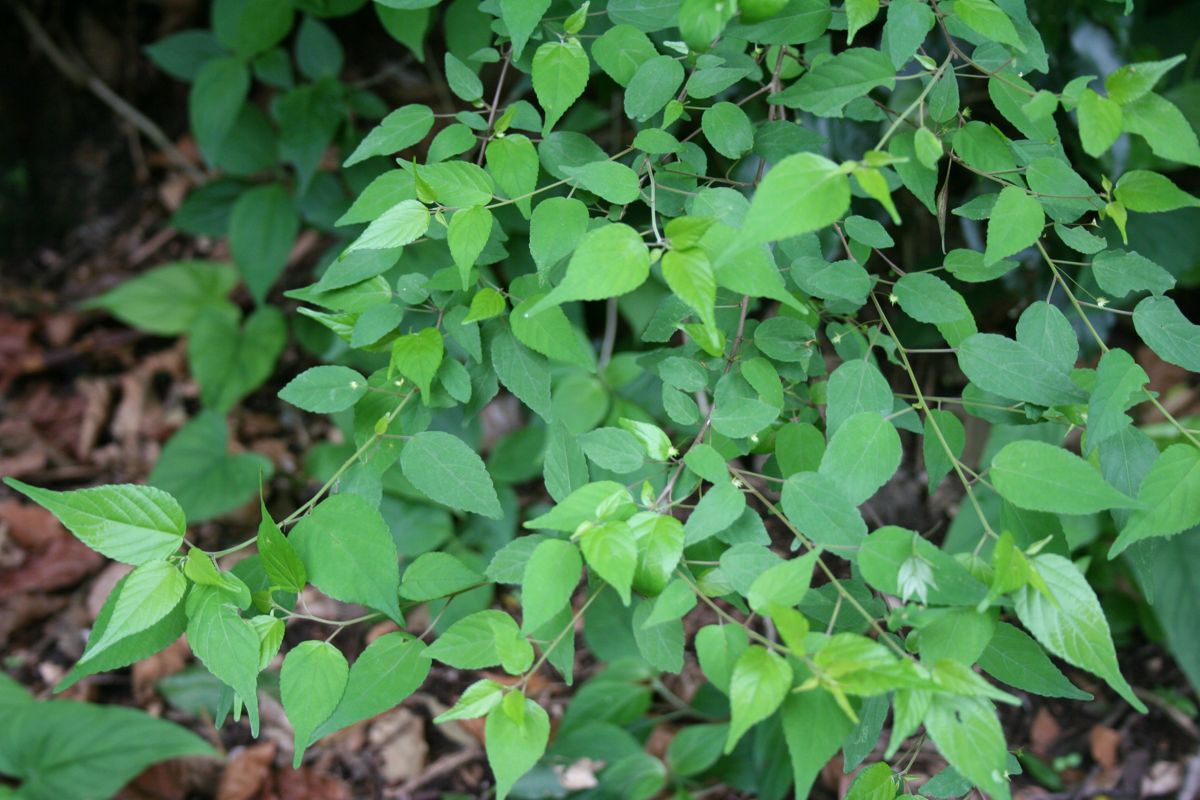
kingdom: Plantae
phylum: Tracheophyta
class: Magnoliopsida
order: Malpighiales
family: Euphorbiaceae
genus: Acalypha
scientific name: Acalypha leptopoda
